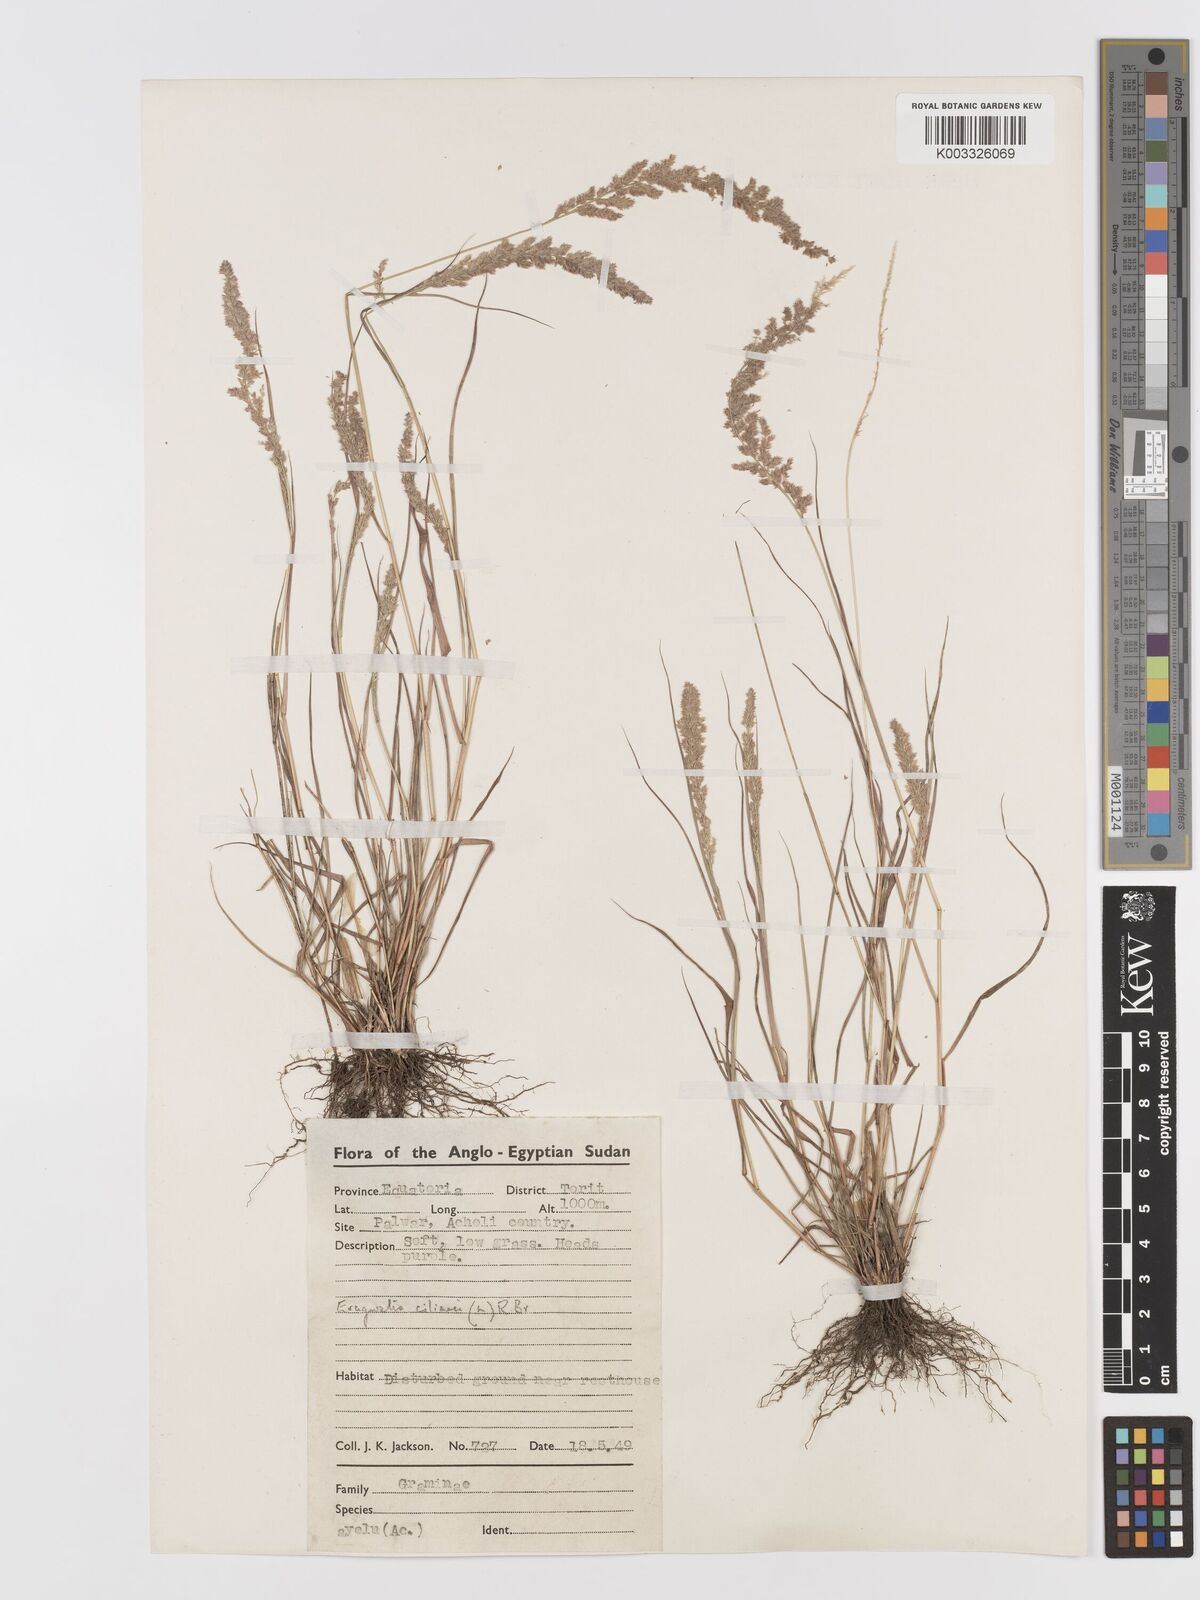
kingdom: Plantae
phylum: Tracheophyta
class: Liliopsida
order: Poales
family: Poaceae
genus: Eragrostis
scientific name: Eragrostis ciliaris
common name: Gophertail lovegrass
